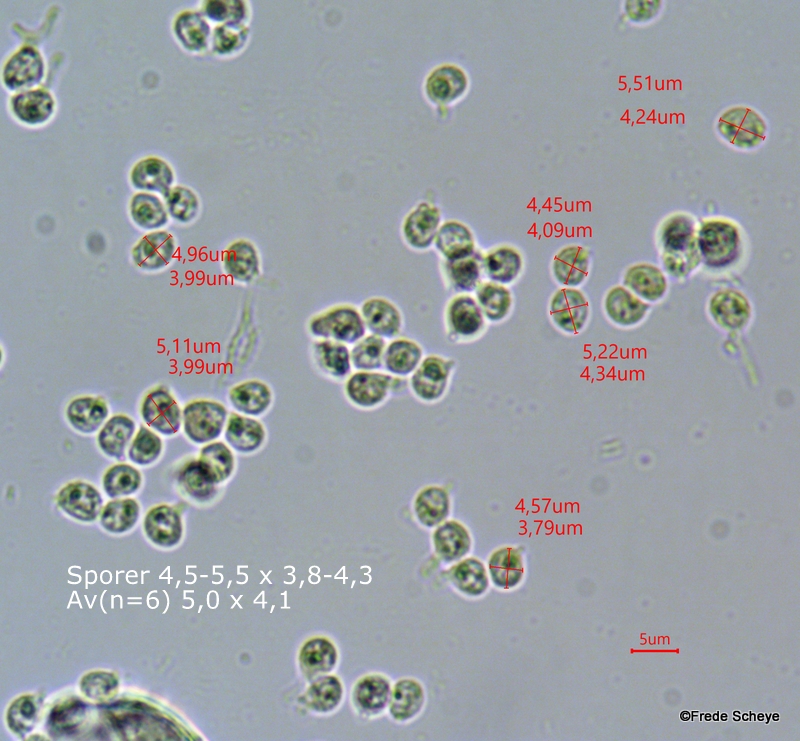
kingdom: Fungi
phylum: Basidiomycota
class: Agaricomycetes
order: Russulales
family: Bondarzewiaceae
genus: Heterobasidion
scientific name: Heterobasidion annosum
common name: almindelig rodfordærver
